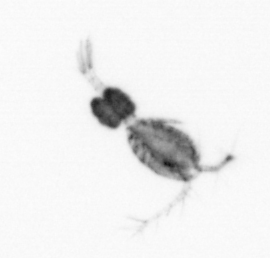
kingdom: Animalia
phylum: Arthropoda
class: Copepoda
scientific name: Copepoda
